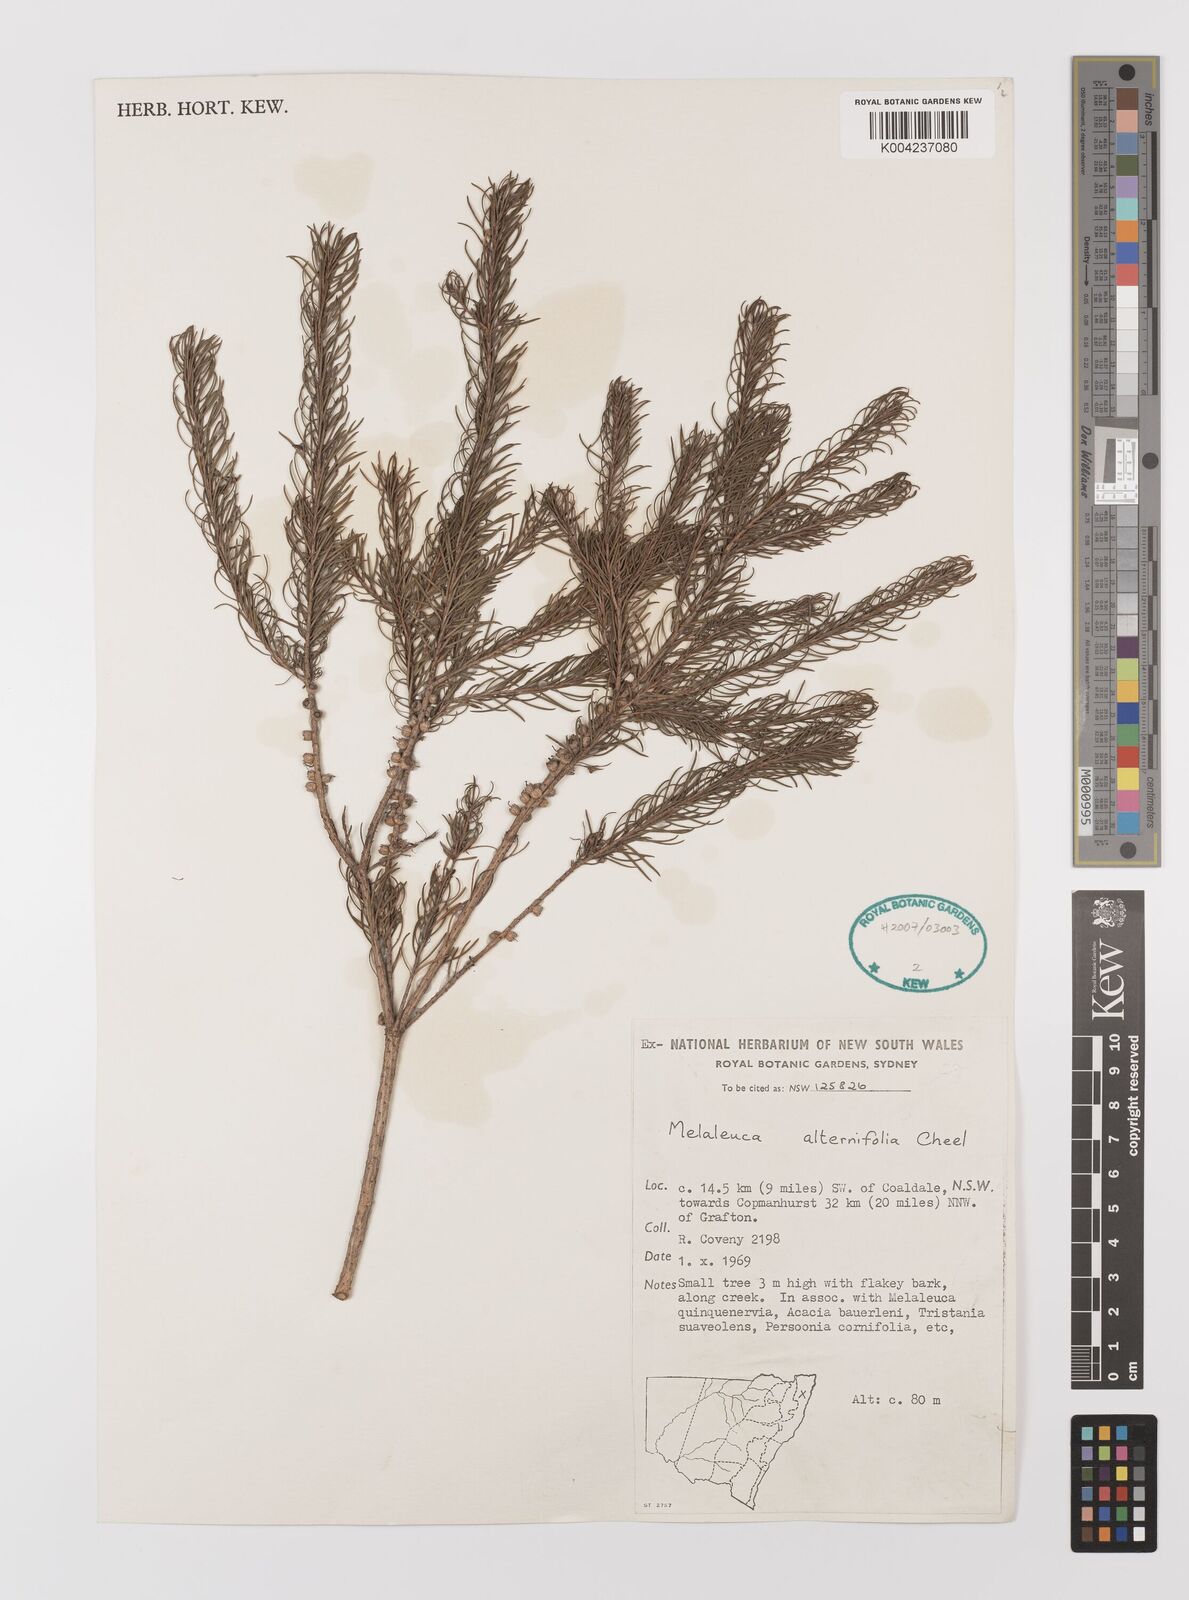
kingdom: Plantae
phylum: Tracheophyta
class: Magnoliopsida
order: Myrtales
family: Myrtaceae
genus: Melaleuca
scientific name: Melaleuca alternifolia
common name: Narrow-leaf paperbark
